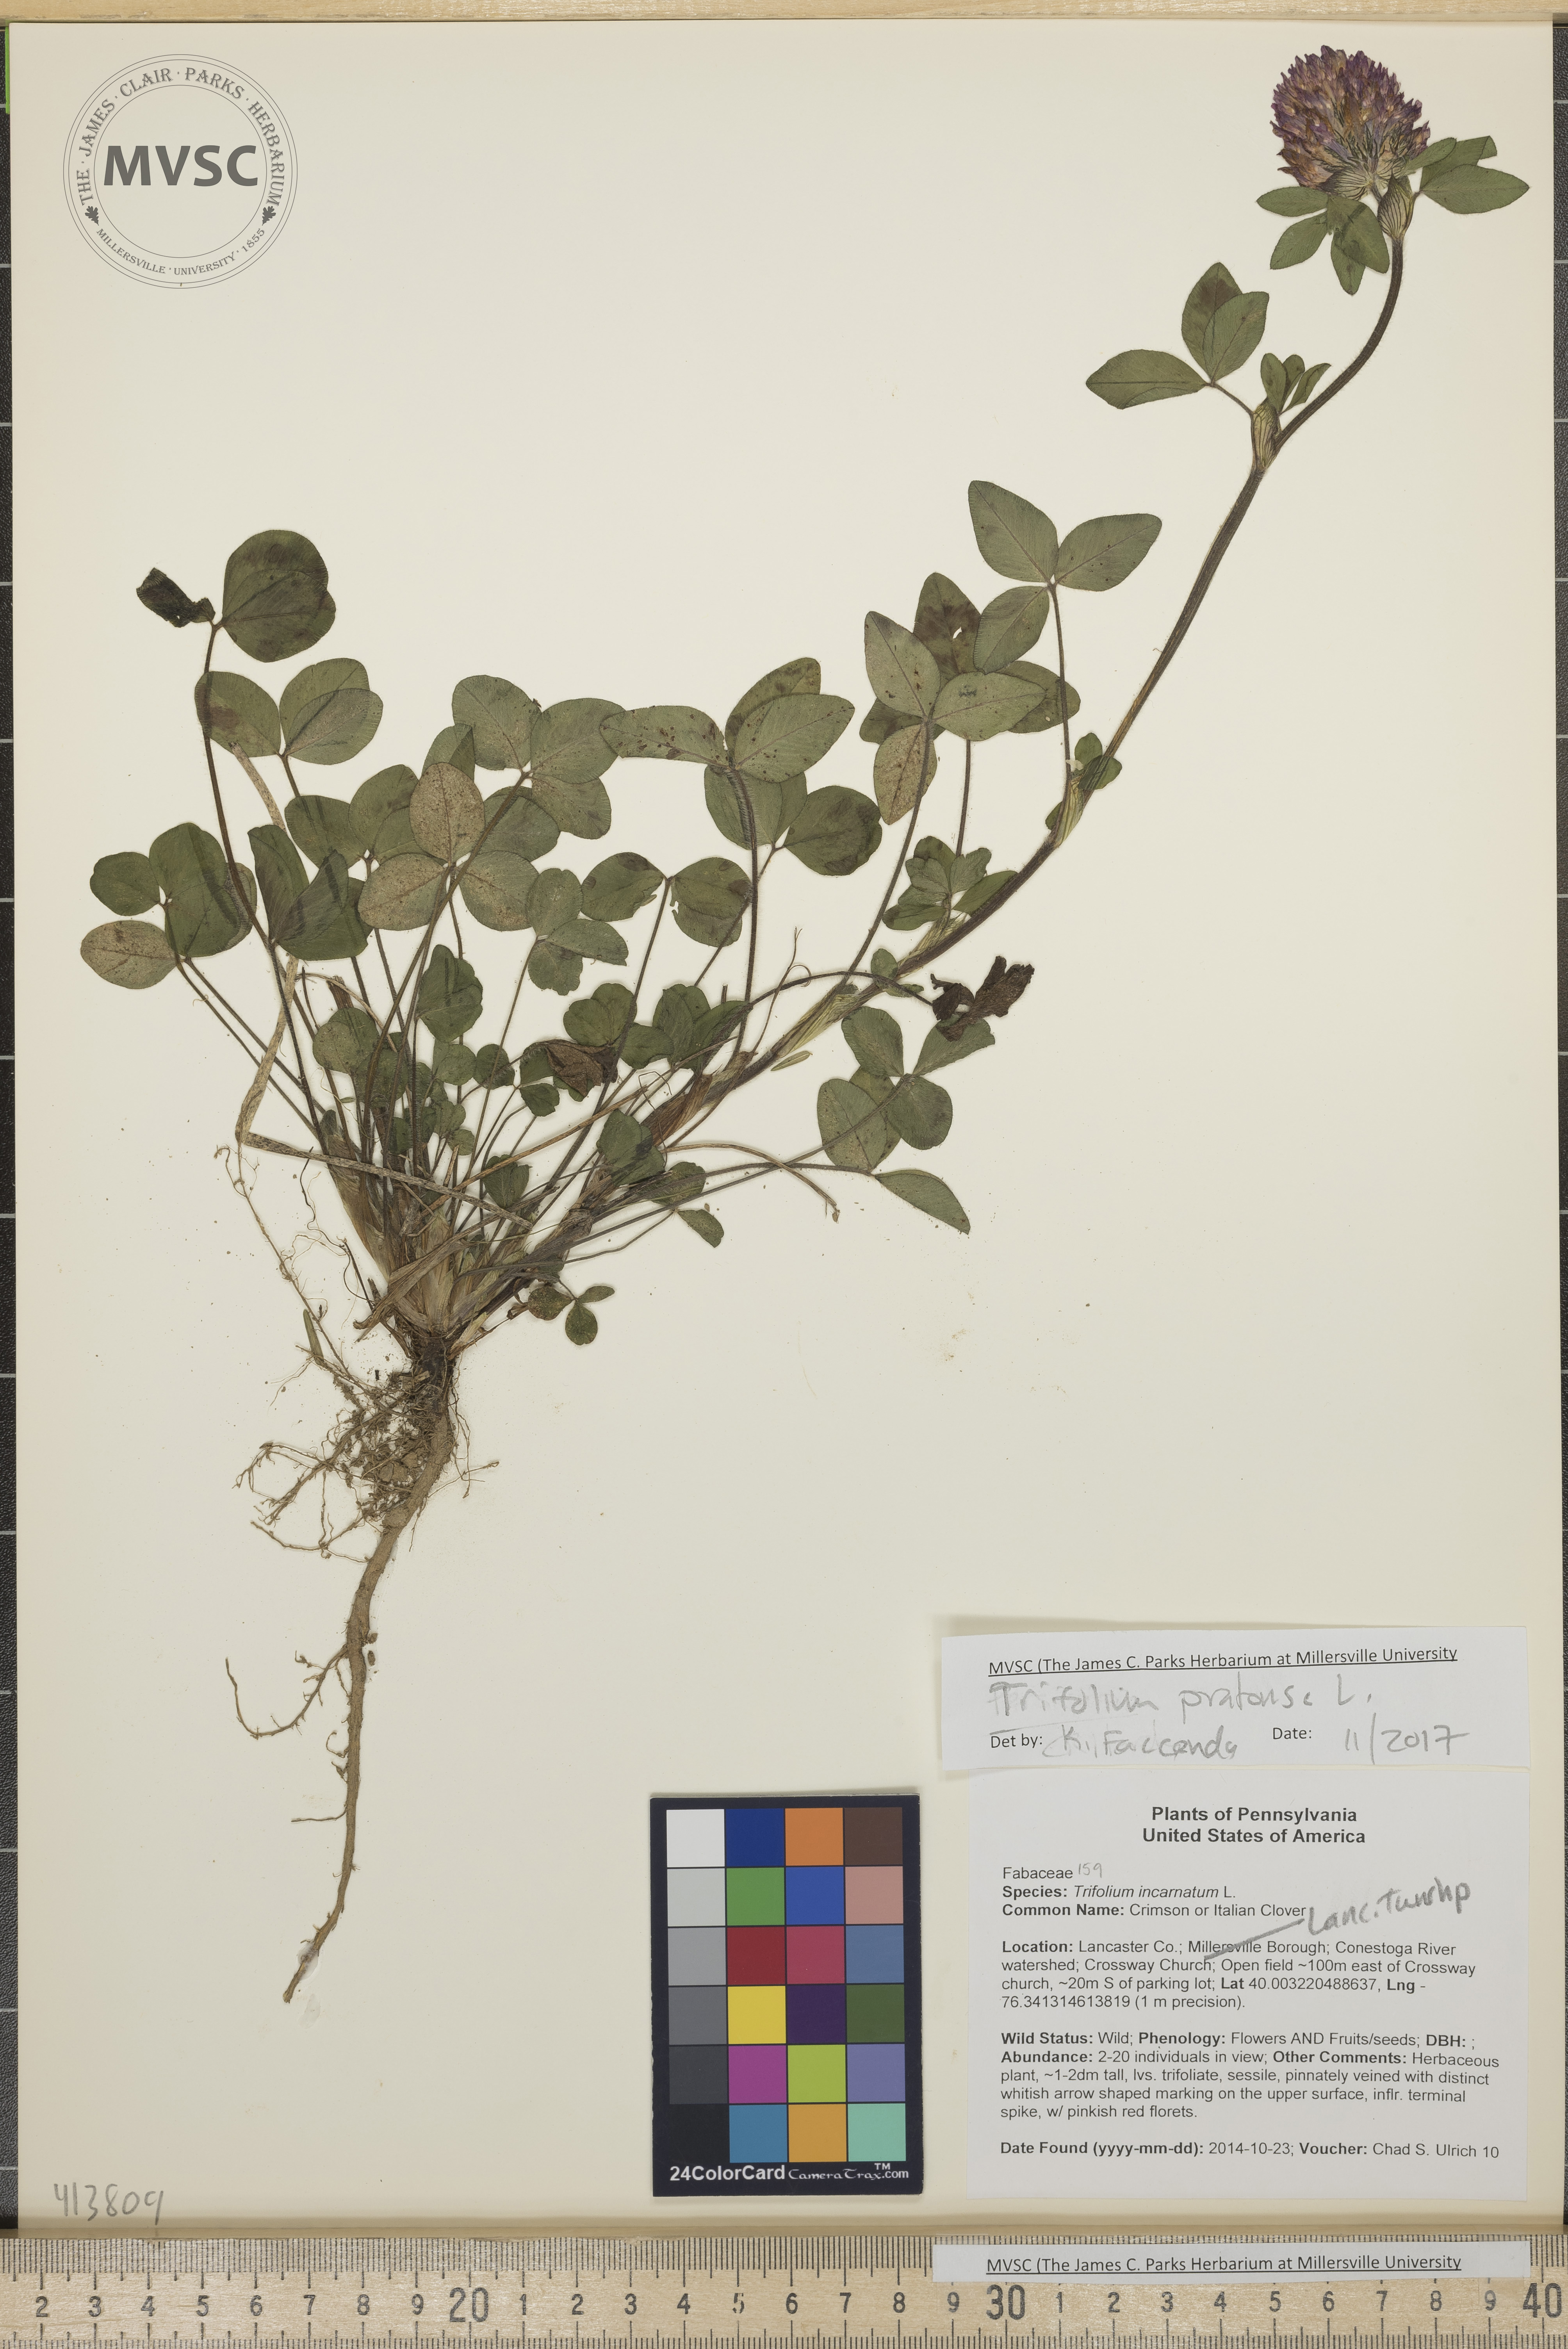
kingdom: Plantae
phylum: Tracheophyta
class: Magnoliopsida
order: Fabales
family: Fabaceae
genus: Trifolium
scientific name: Trifolium pratense
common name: Red Clover
